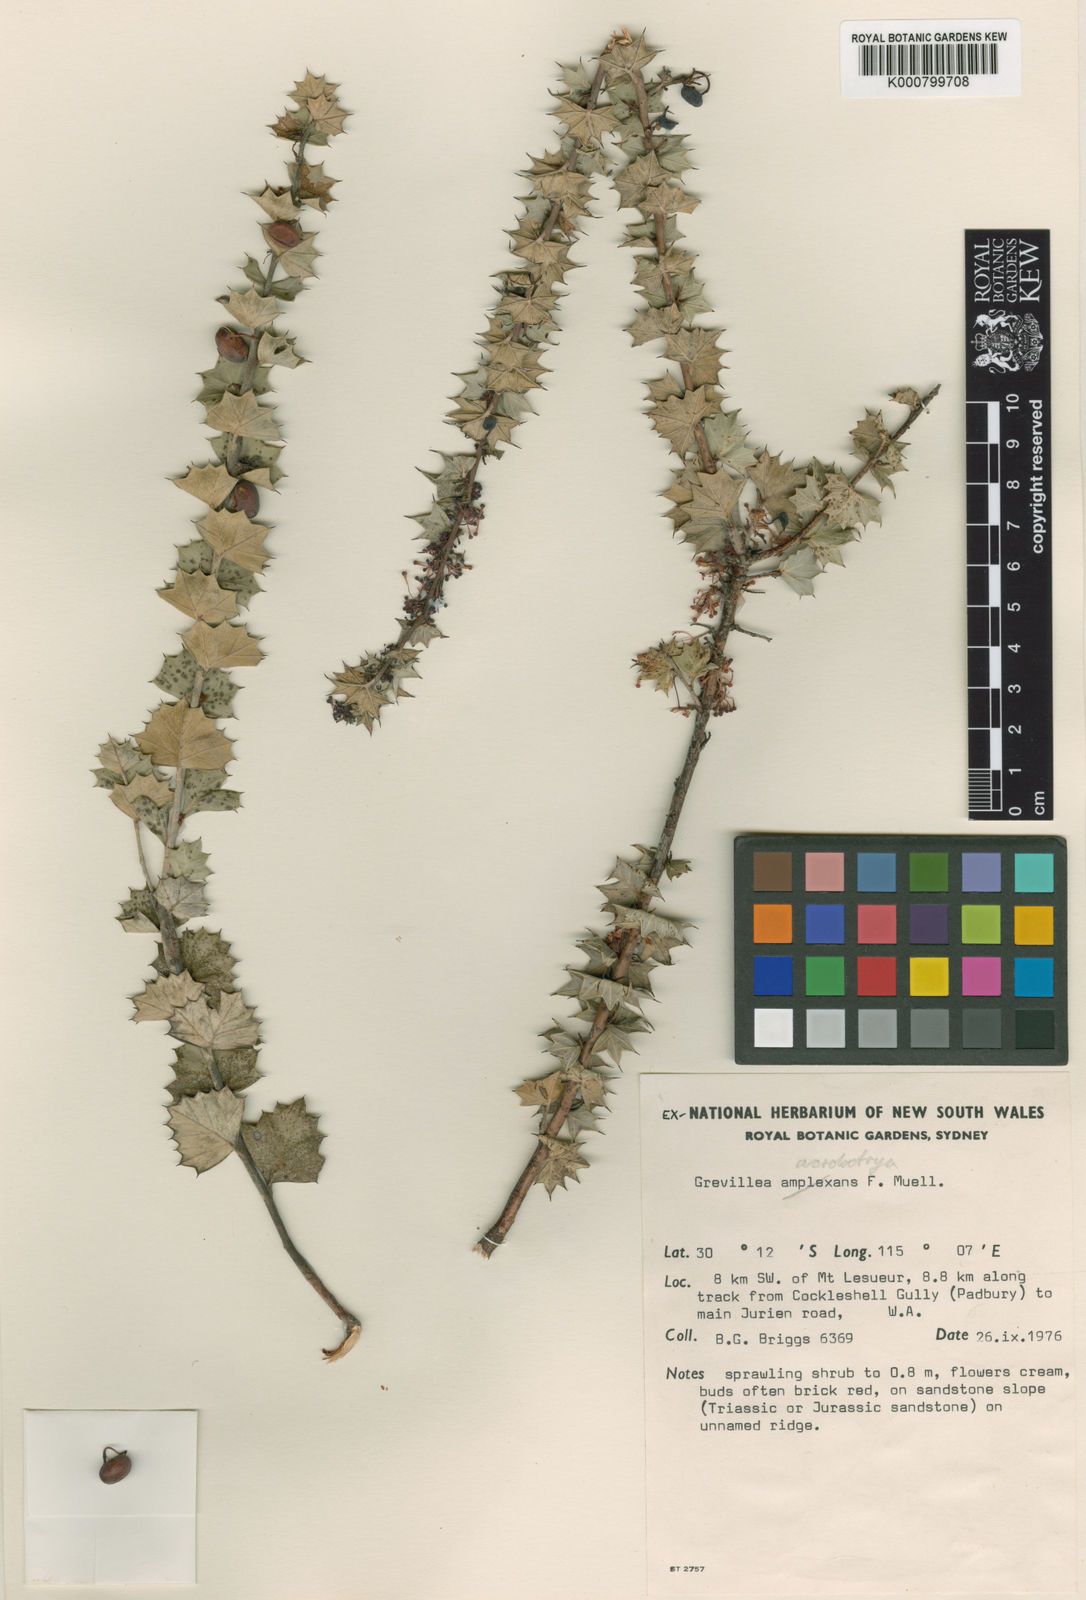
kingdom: Plantae
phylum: Tracheophyta
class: Magnoliopsida
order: Proteales
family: Proteaceae
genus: Grevillea
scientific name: Grevillea uniformis
